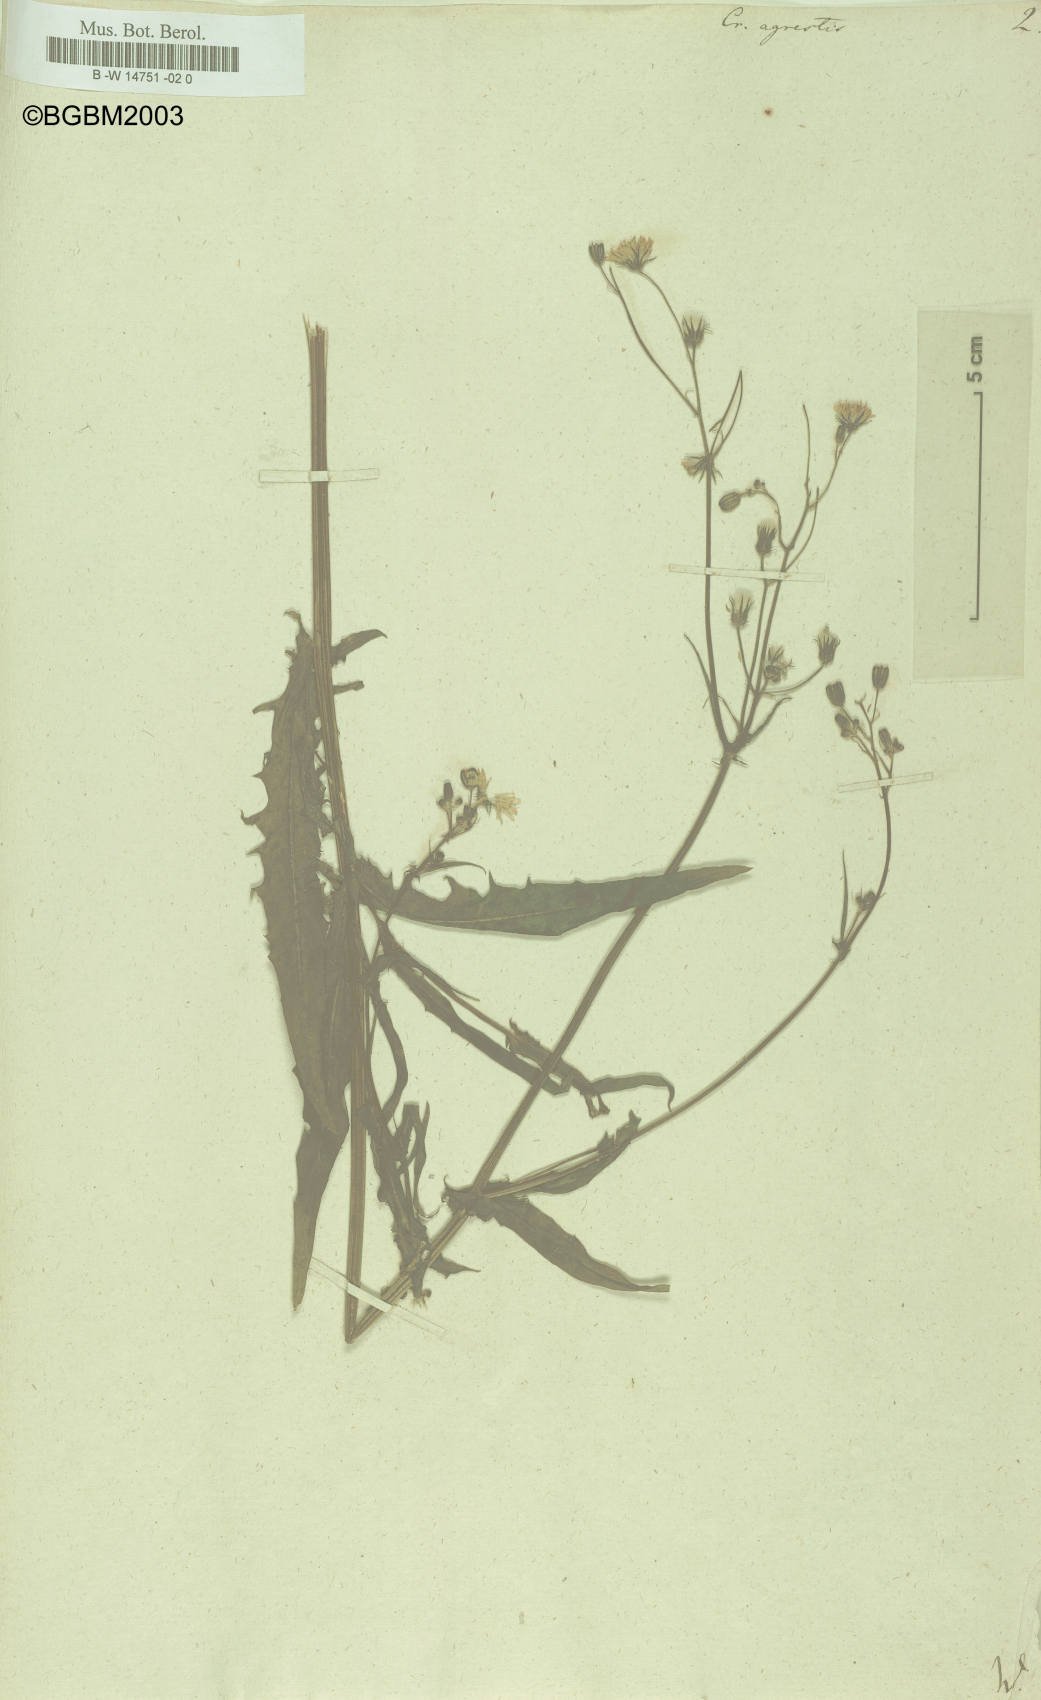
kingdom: Plantae
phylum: Tracheophyta
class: Magnoliopsida
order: Asterales
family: Asteraceae
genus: Crepis
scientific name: Crepis
